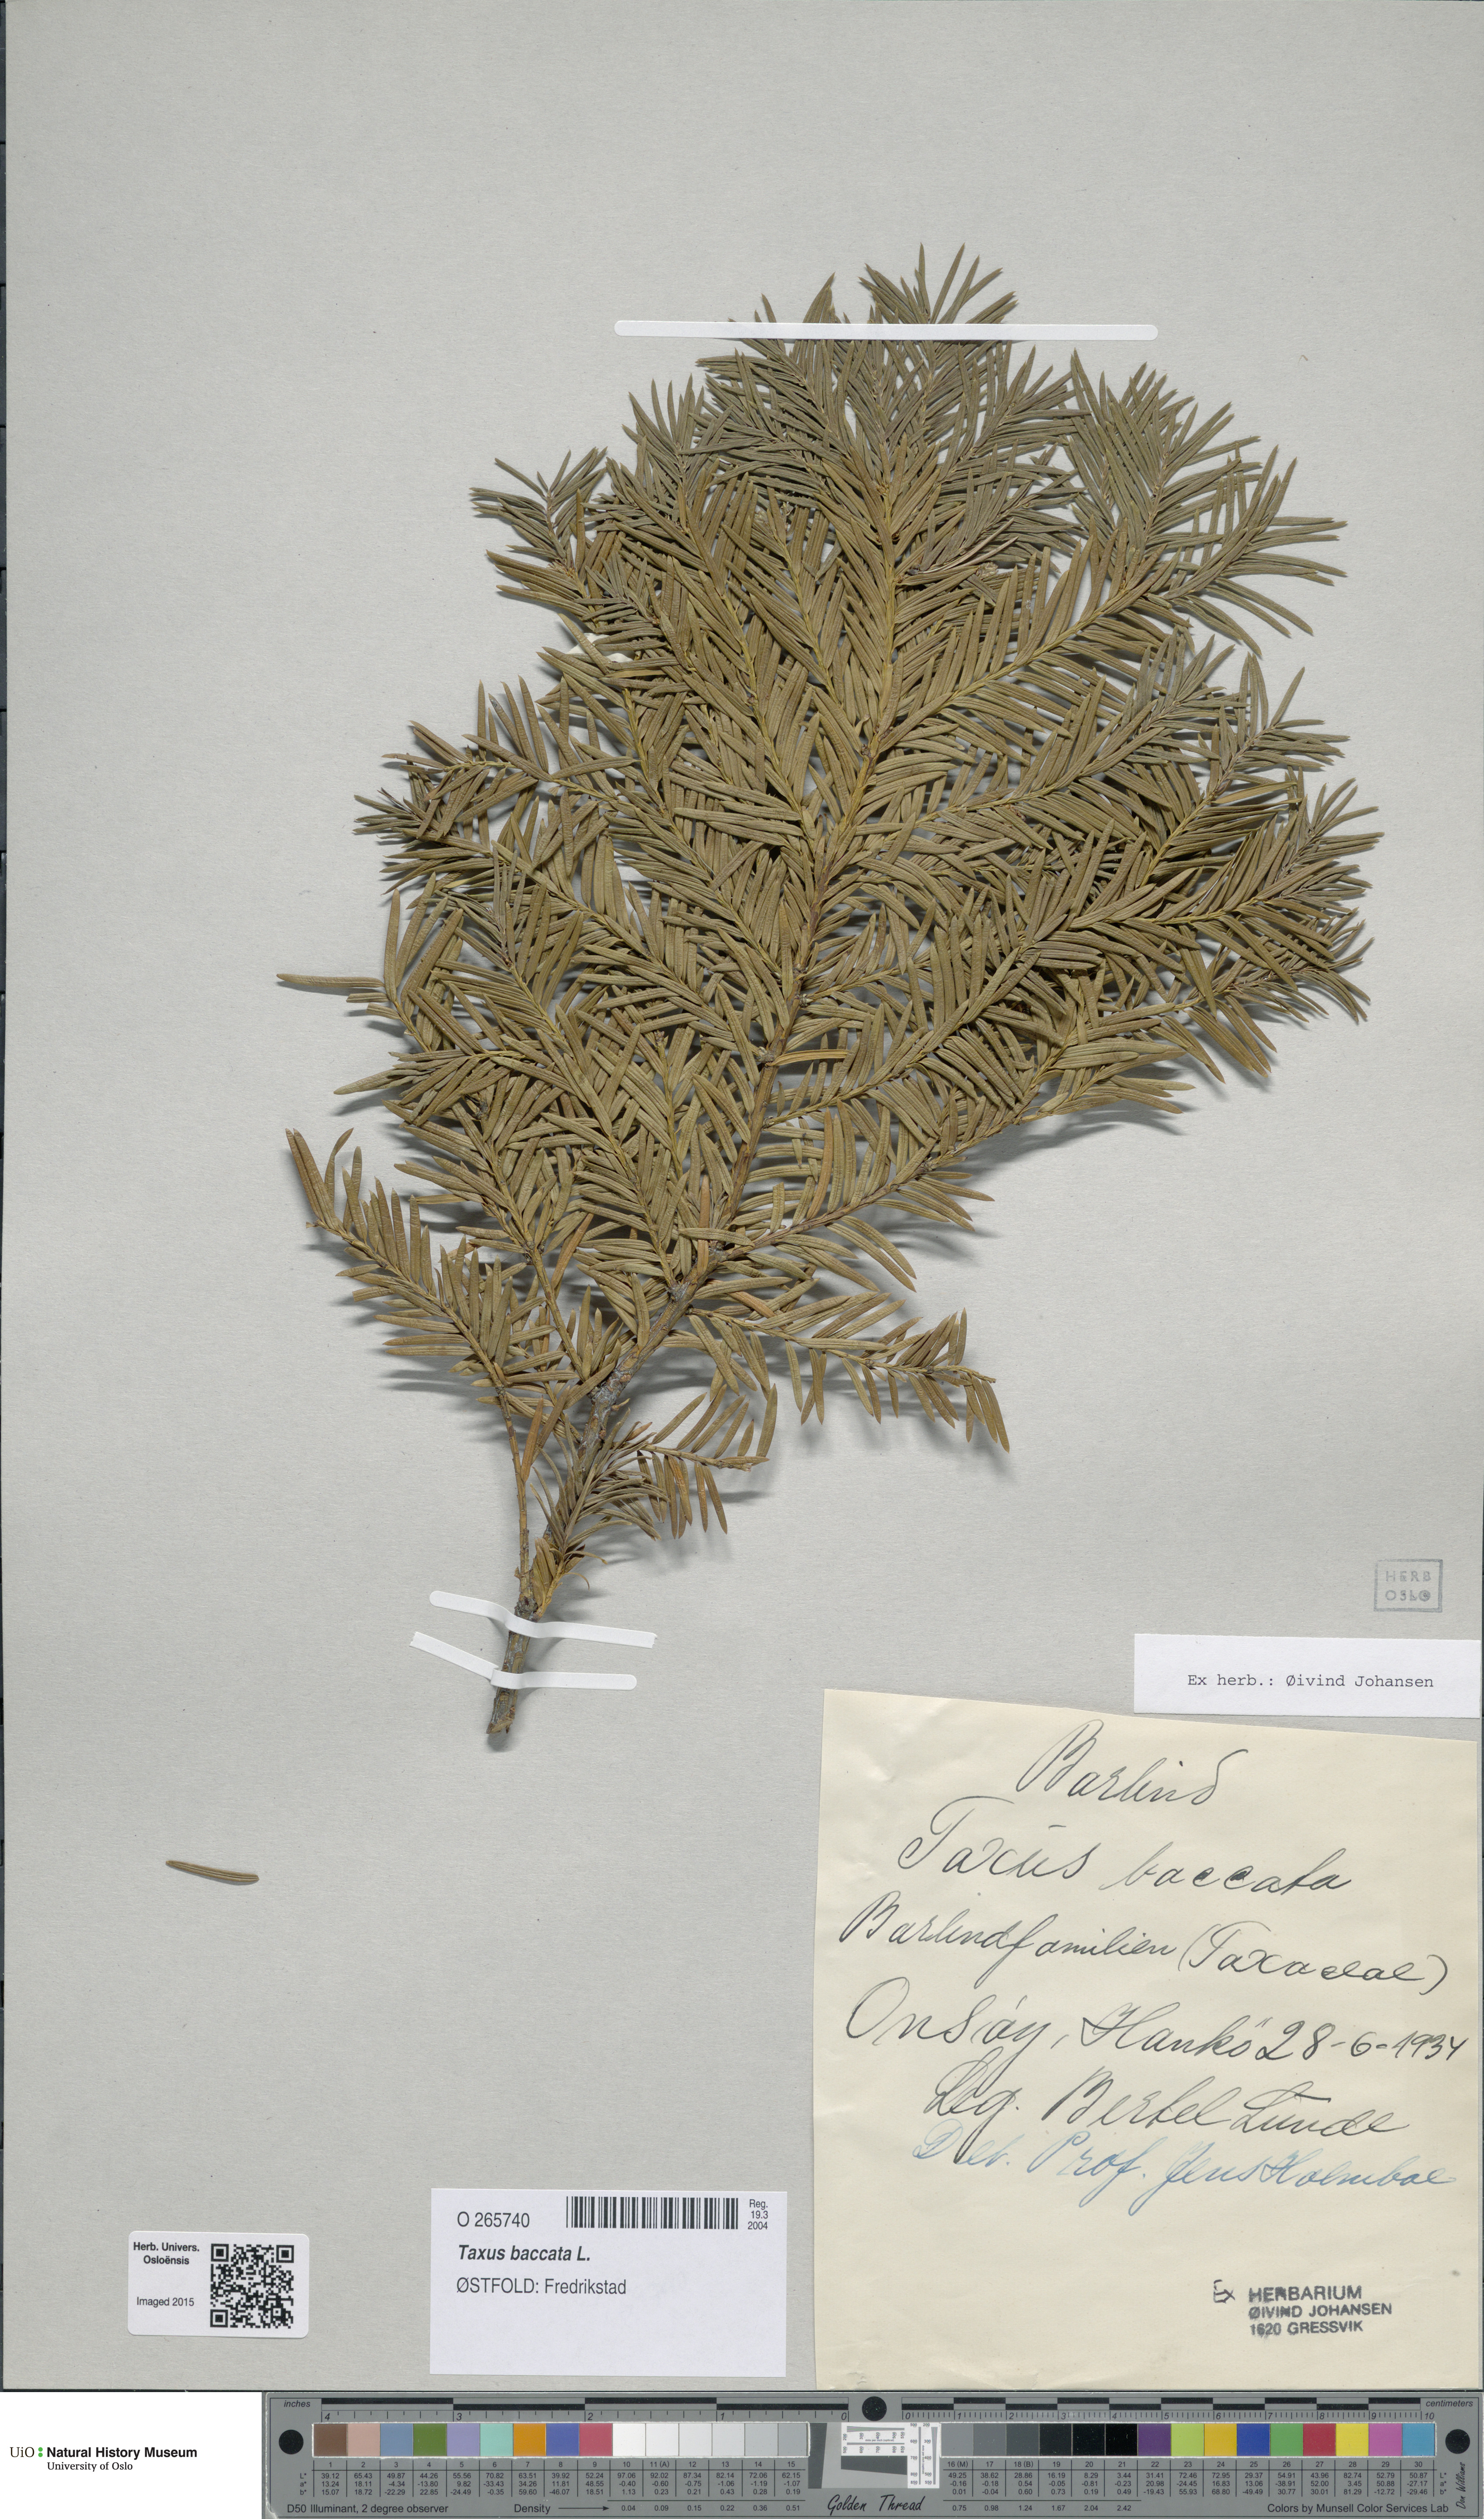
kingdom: Plantae
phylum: Tracheophyta
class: Pinopsida
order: Pinales
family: Taxaceae
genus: Taxus
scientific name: Taxus baccata
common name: Yew
